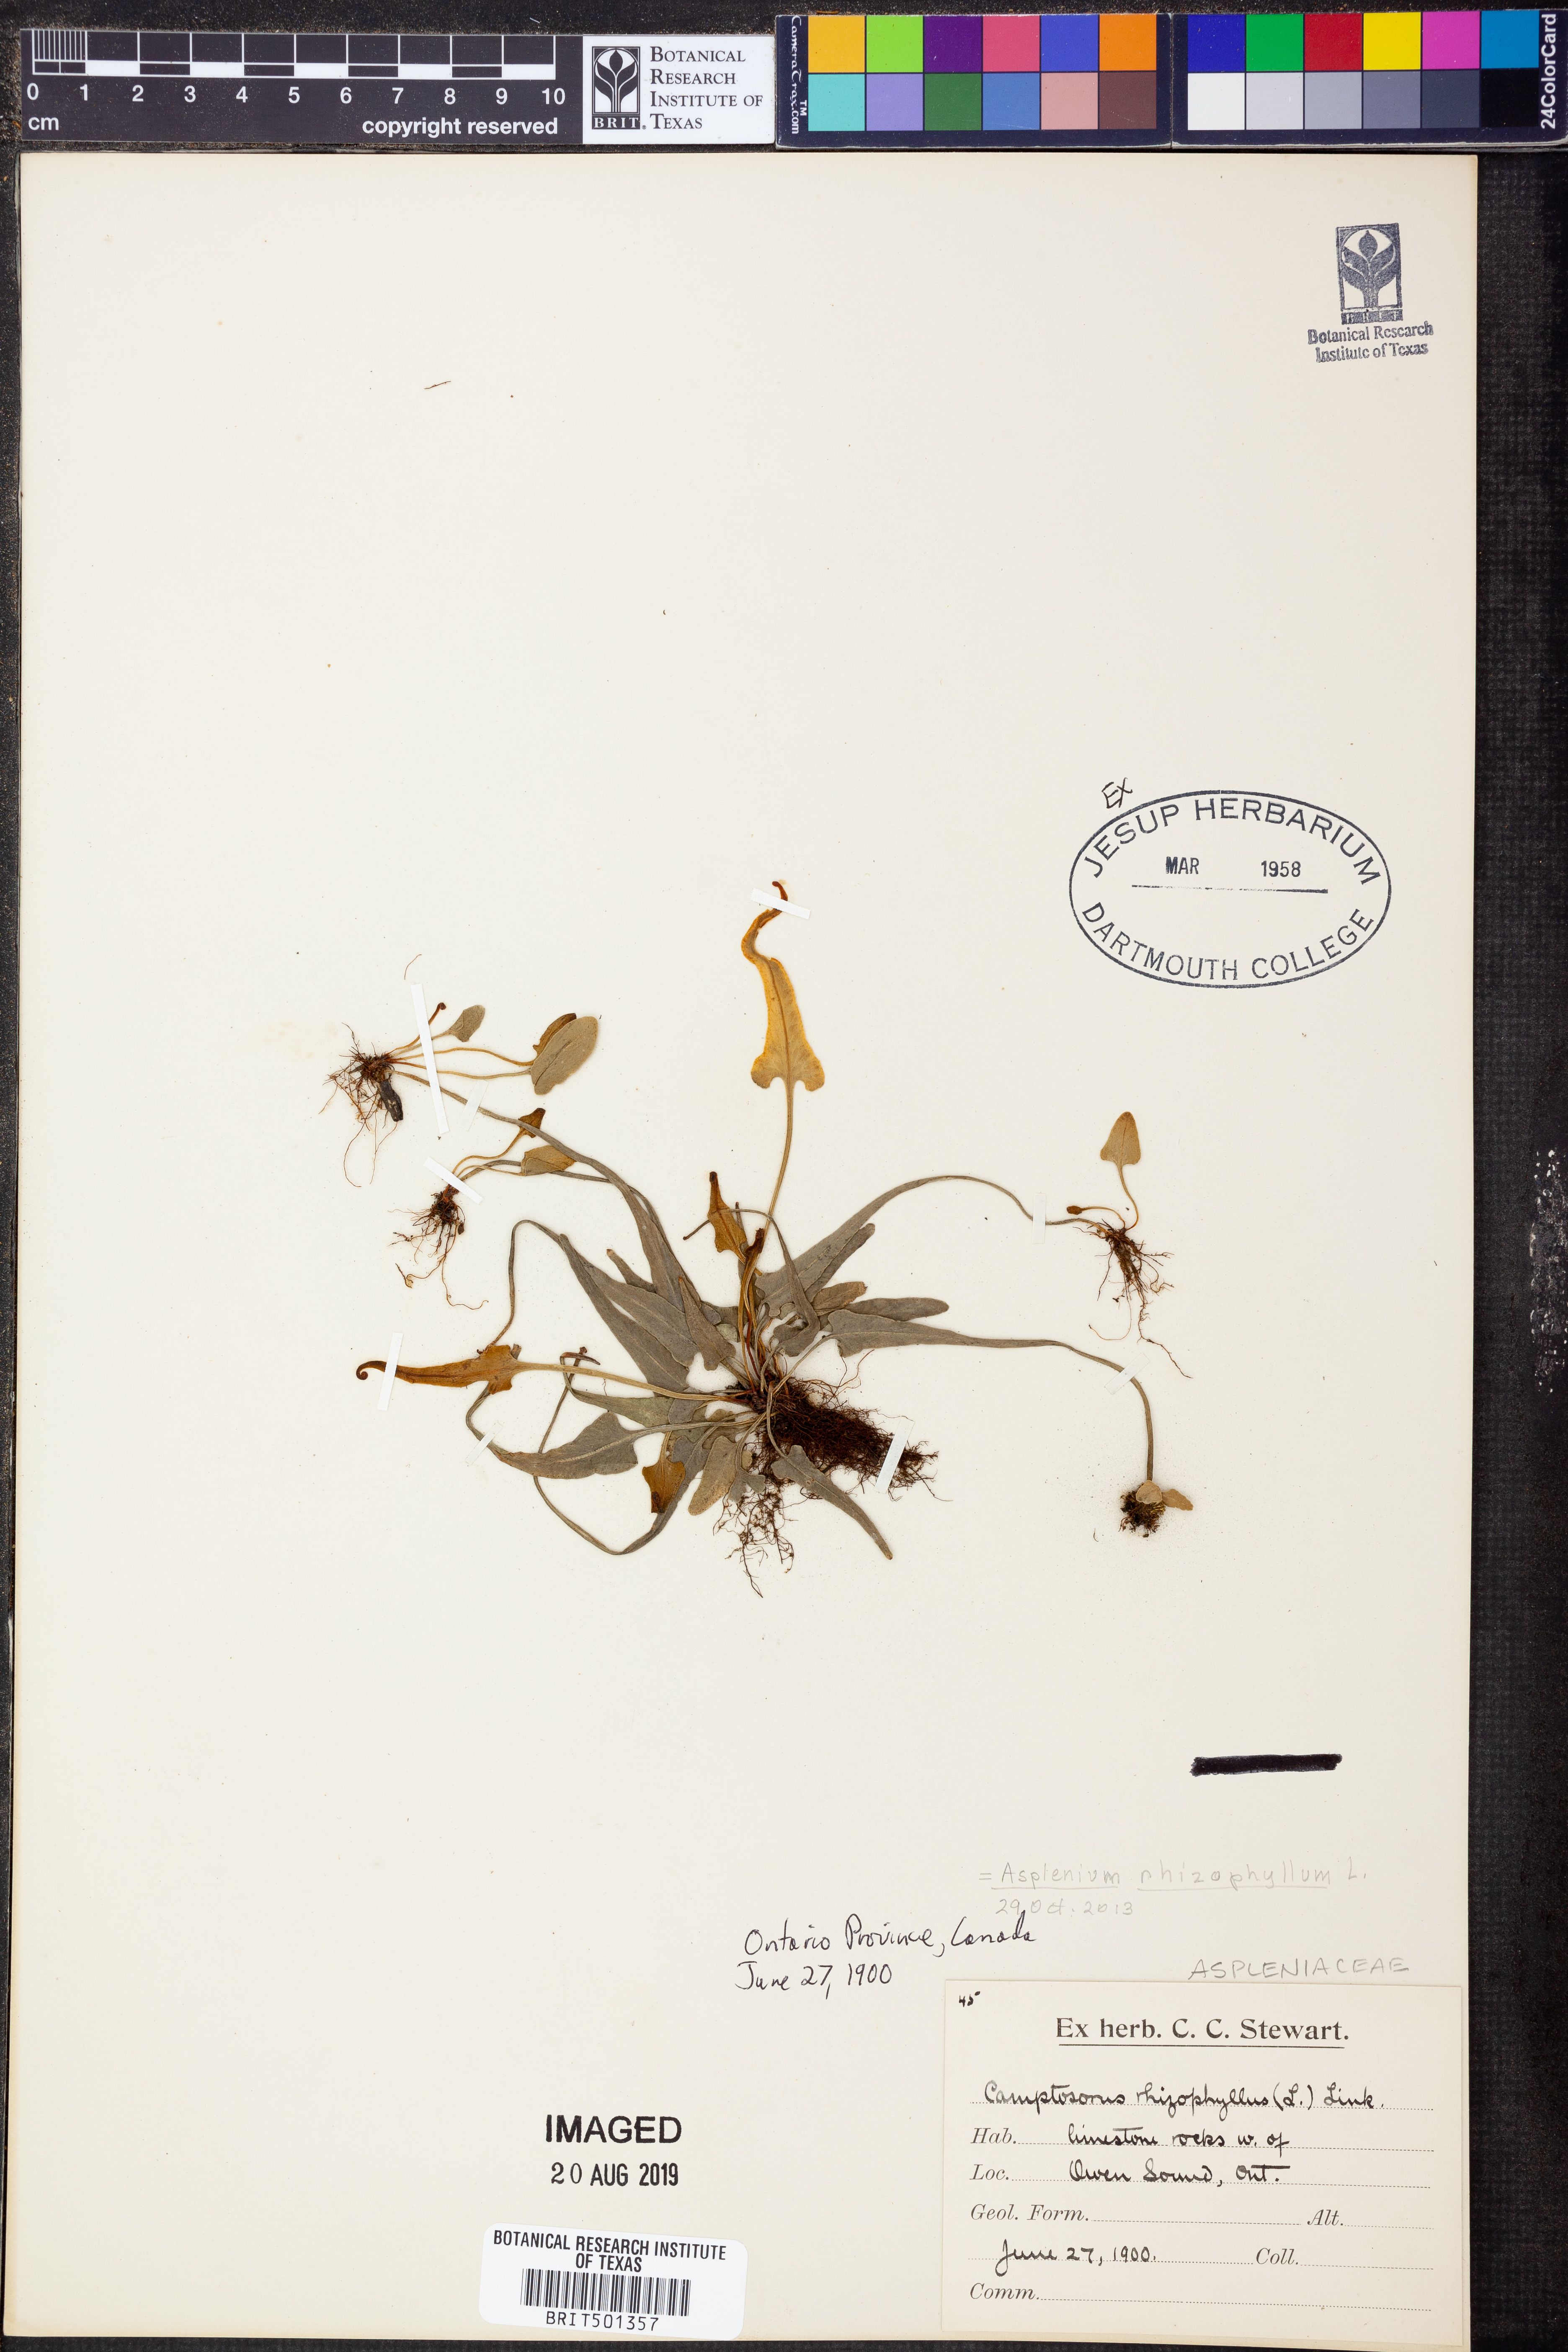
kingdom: Plantae
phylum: Tracheophyta
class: Polypodiopsida
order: Polypodiales
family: Aspleniaceae
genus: Asplenium
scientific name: Asplenium rhizophyllum
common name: Walking fern
